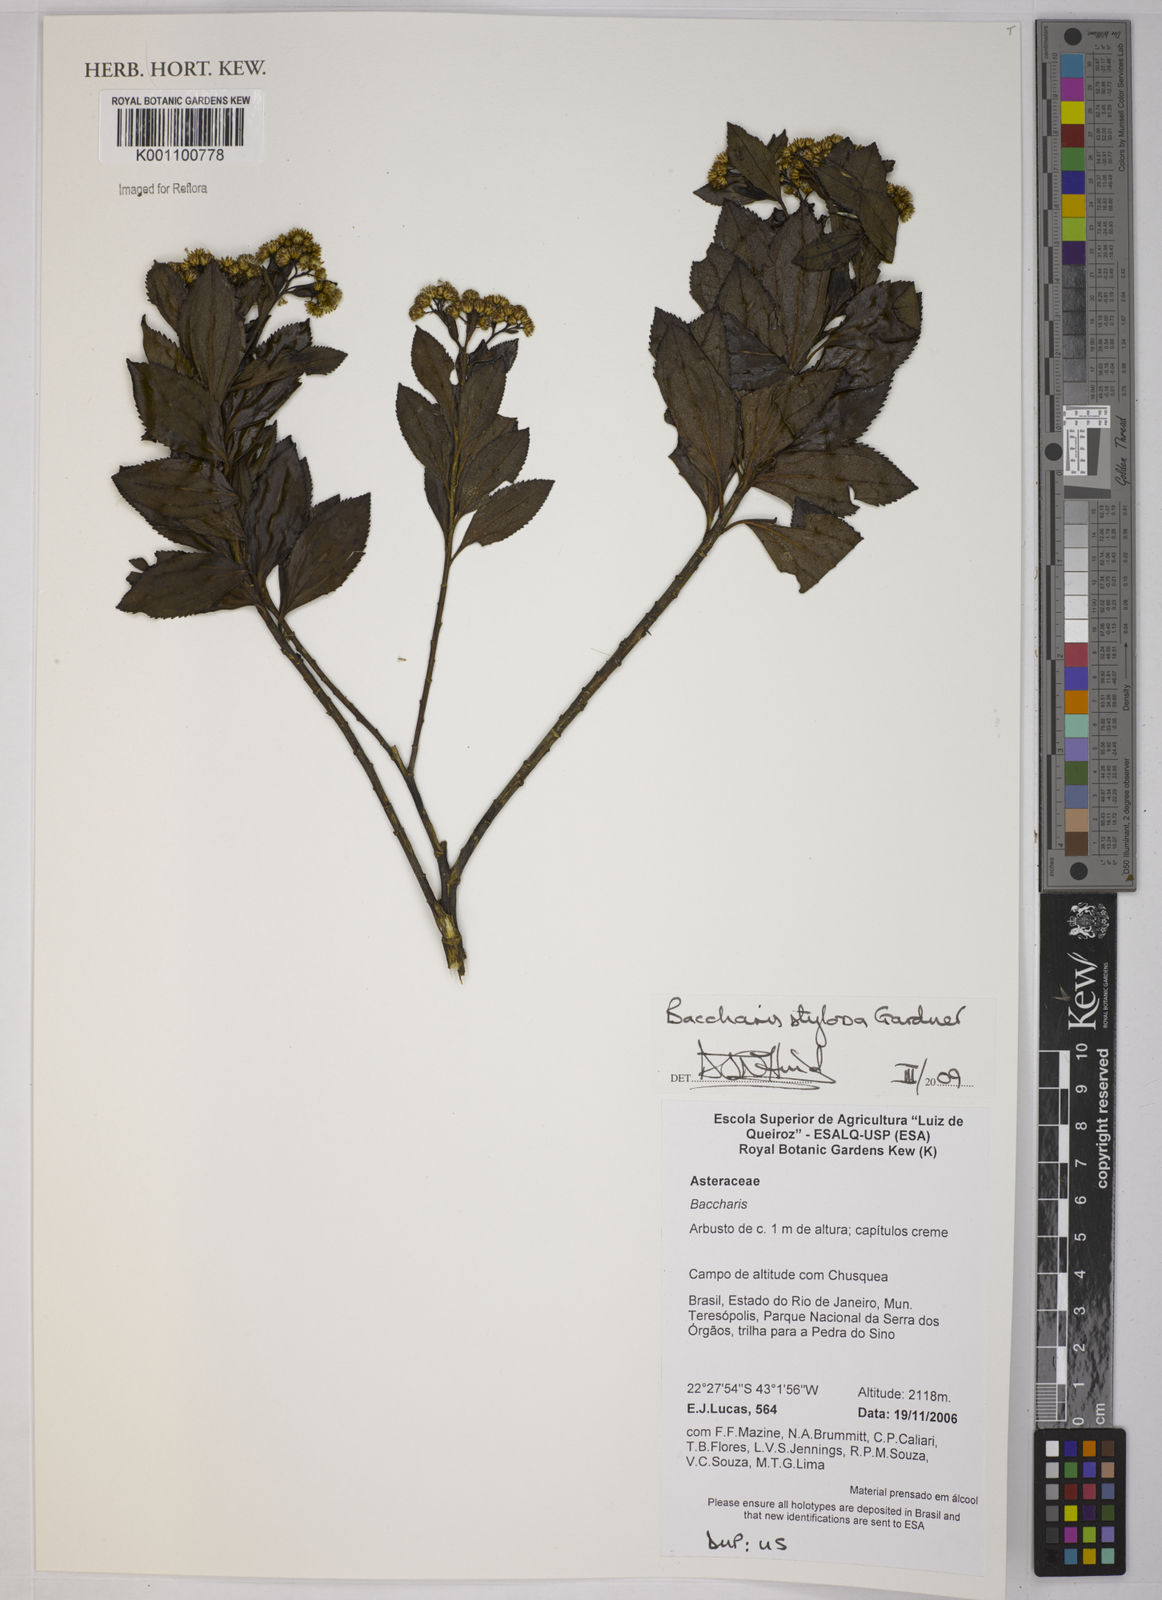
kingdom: Plantae
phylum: Tracheophyta
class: Magnoliopsida
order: Asterales
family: Asteraceae
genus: Baccharis
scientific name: Baccharis stylosa
